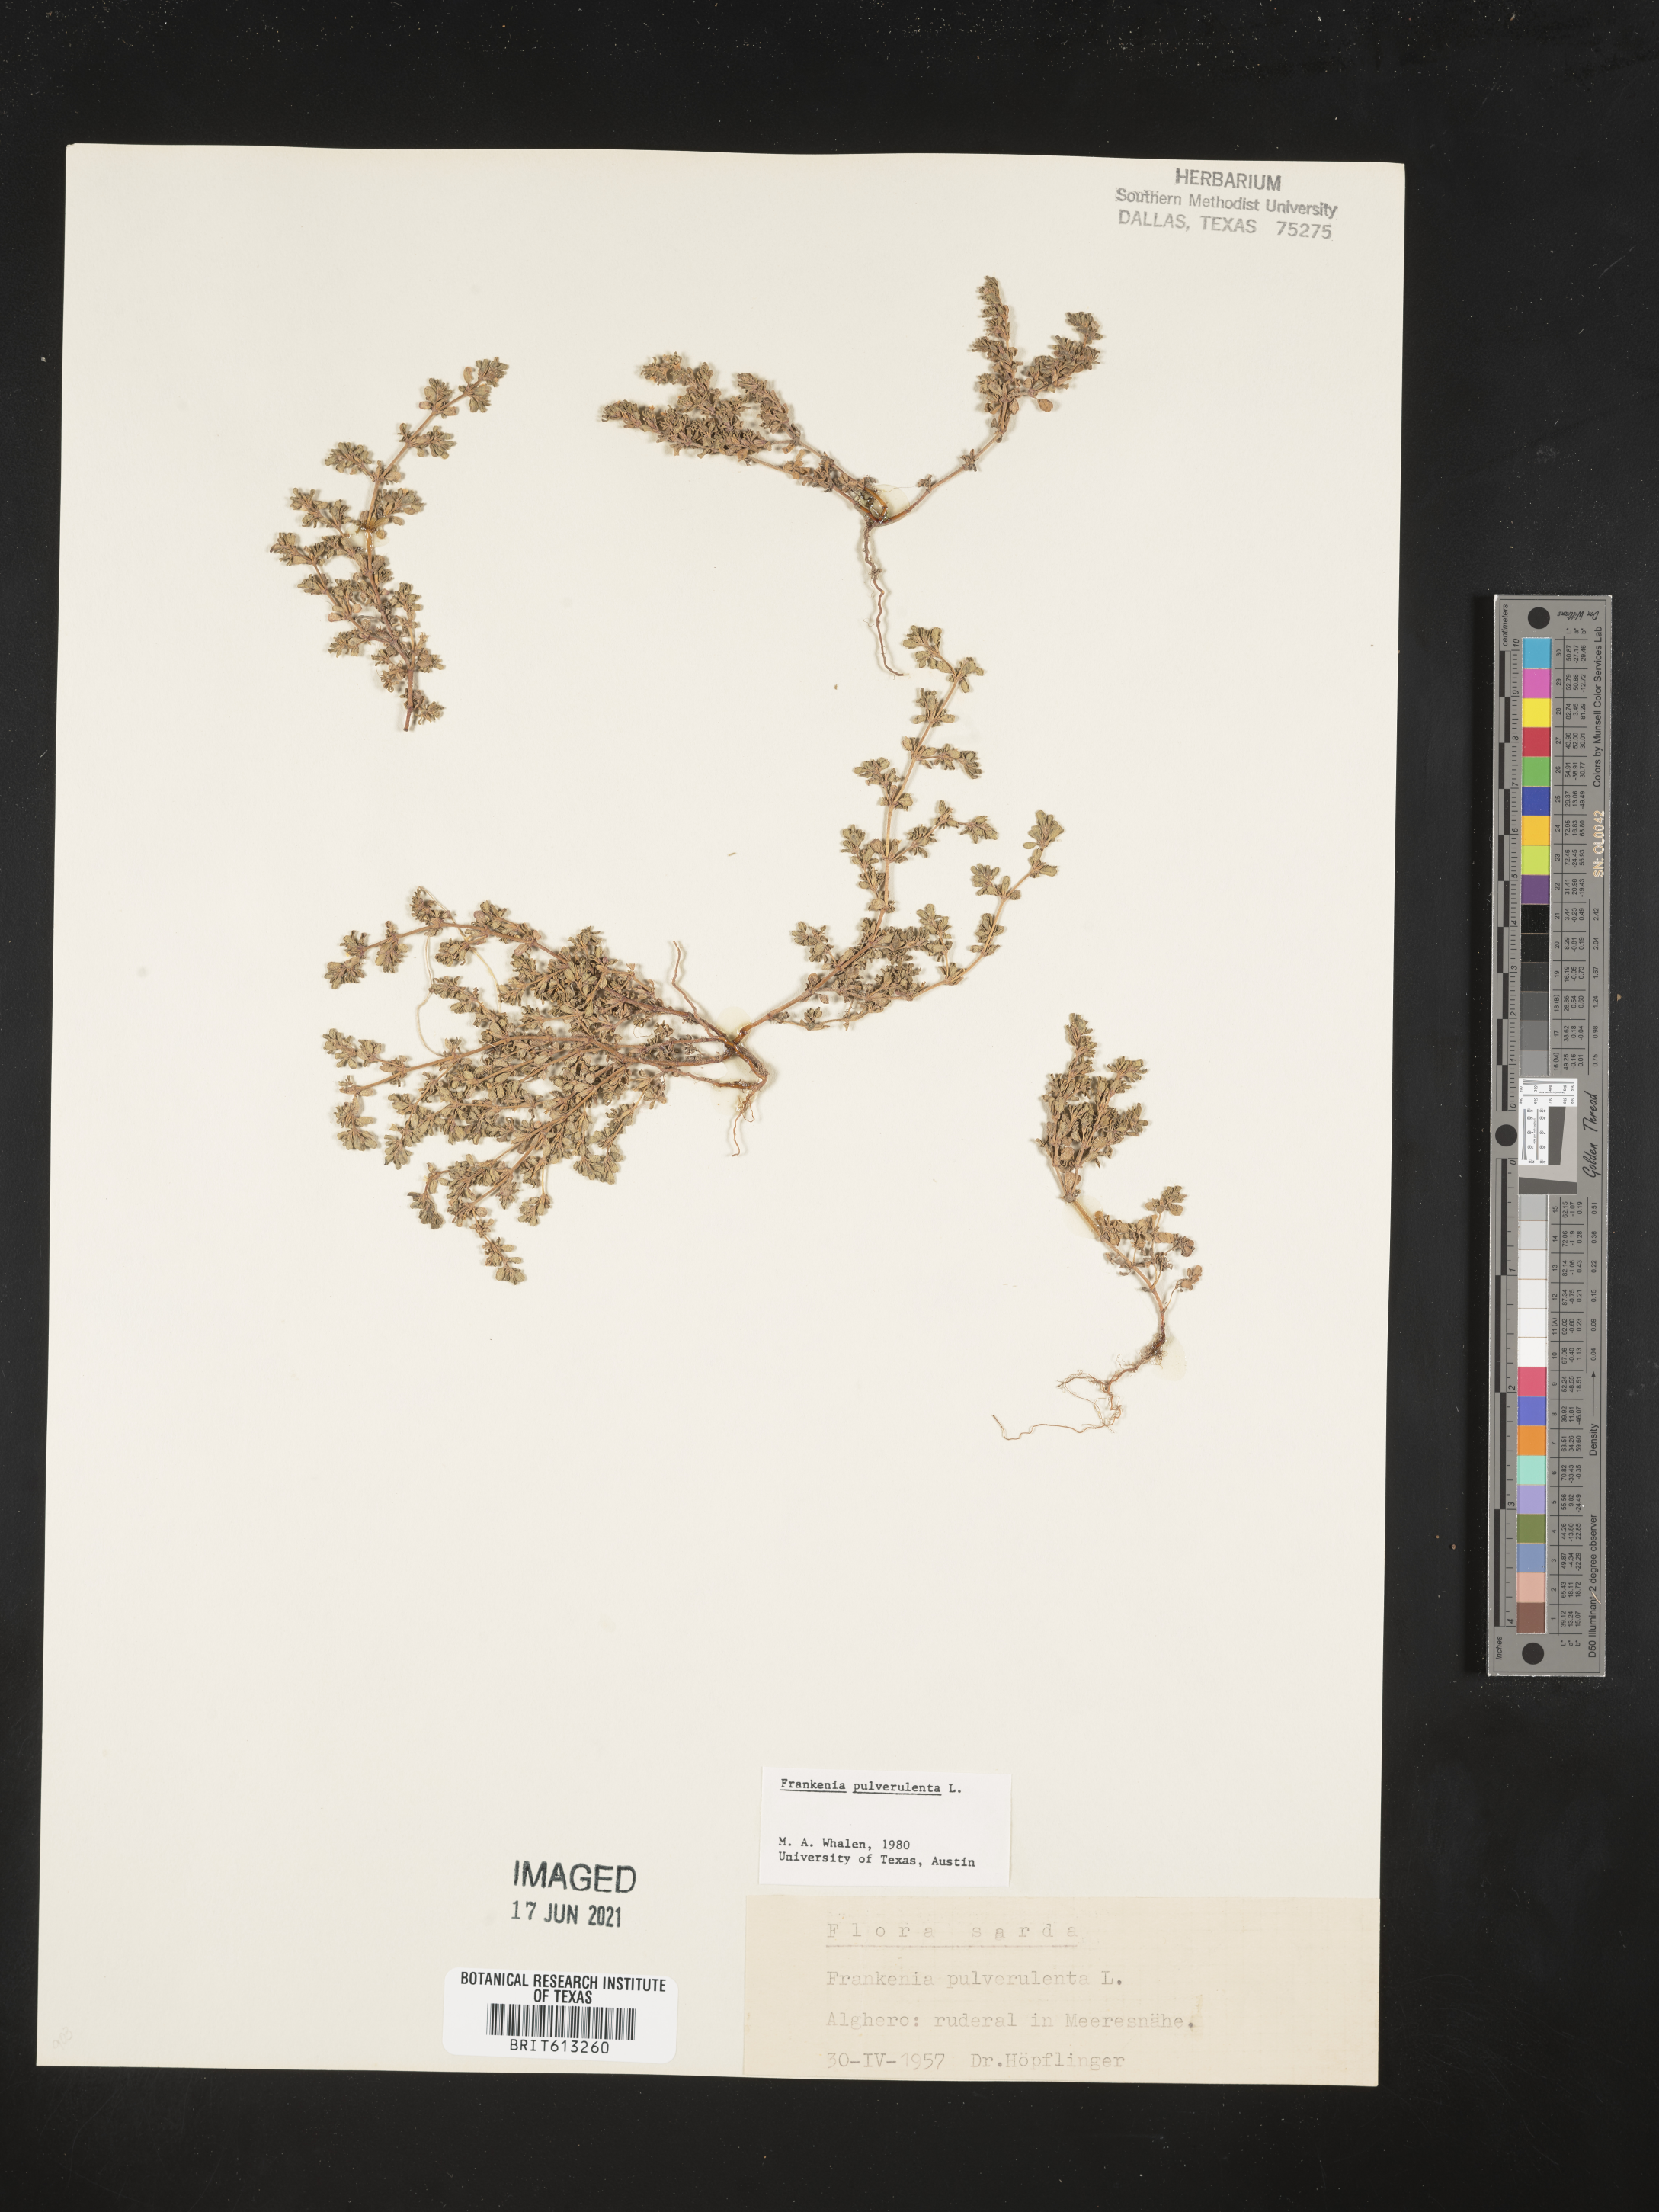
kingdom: Plantae
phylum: Tracheophyta
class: Magnoliopsida
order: Caryophyllales
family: Frankeniaceae
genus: Frankenia
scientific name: Frankenia pulverulenta
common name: European seaheath
